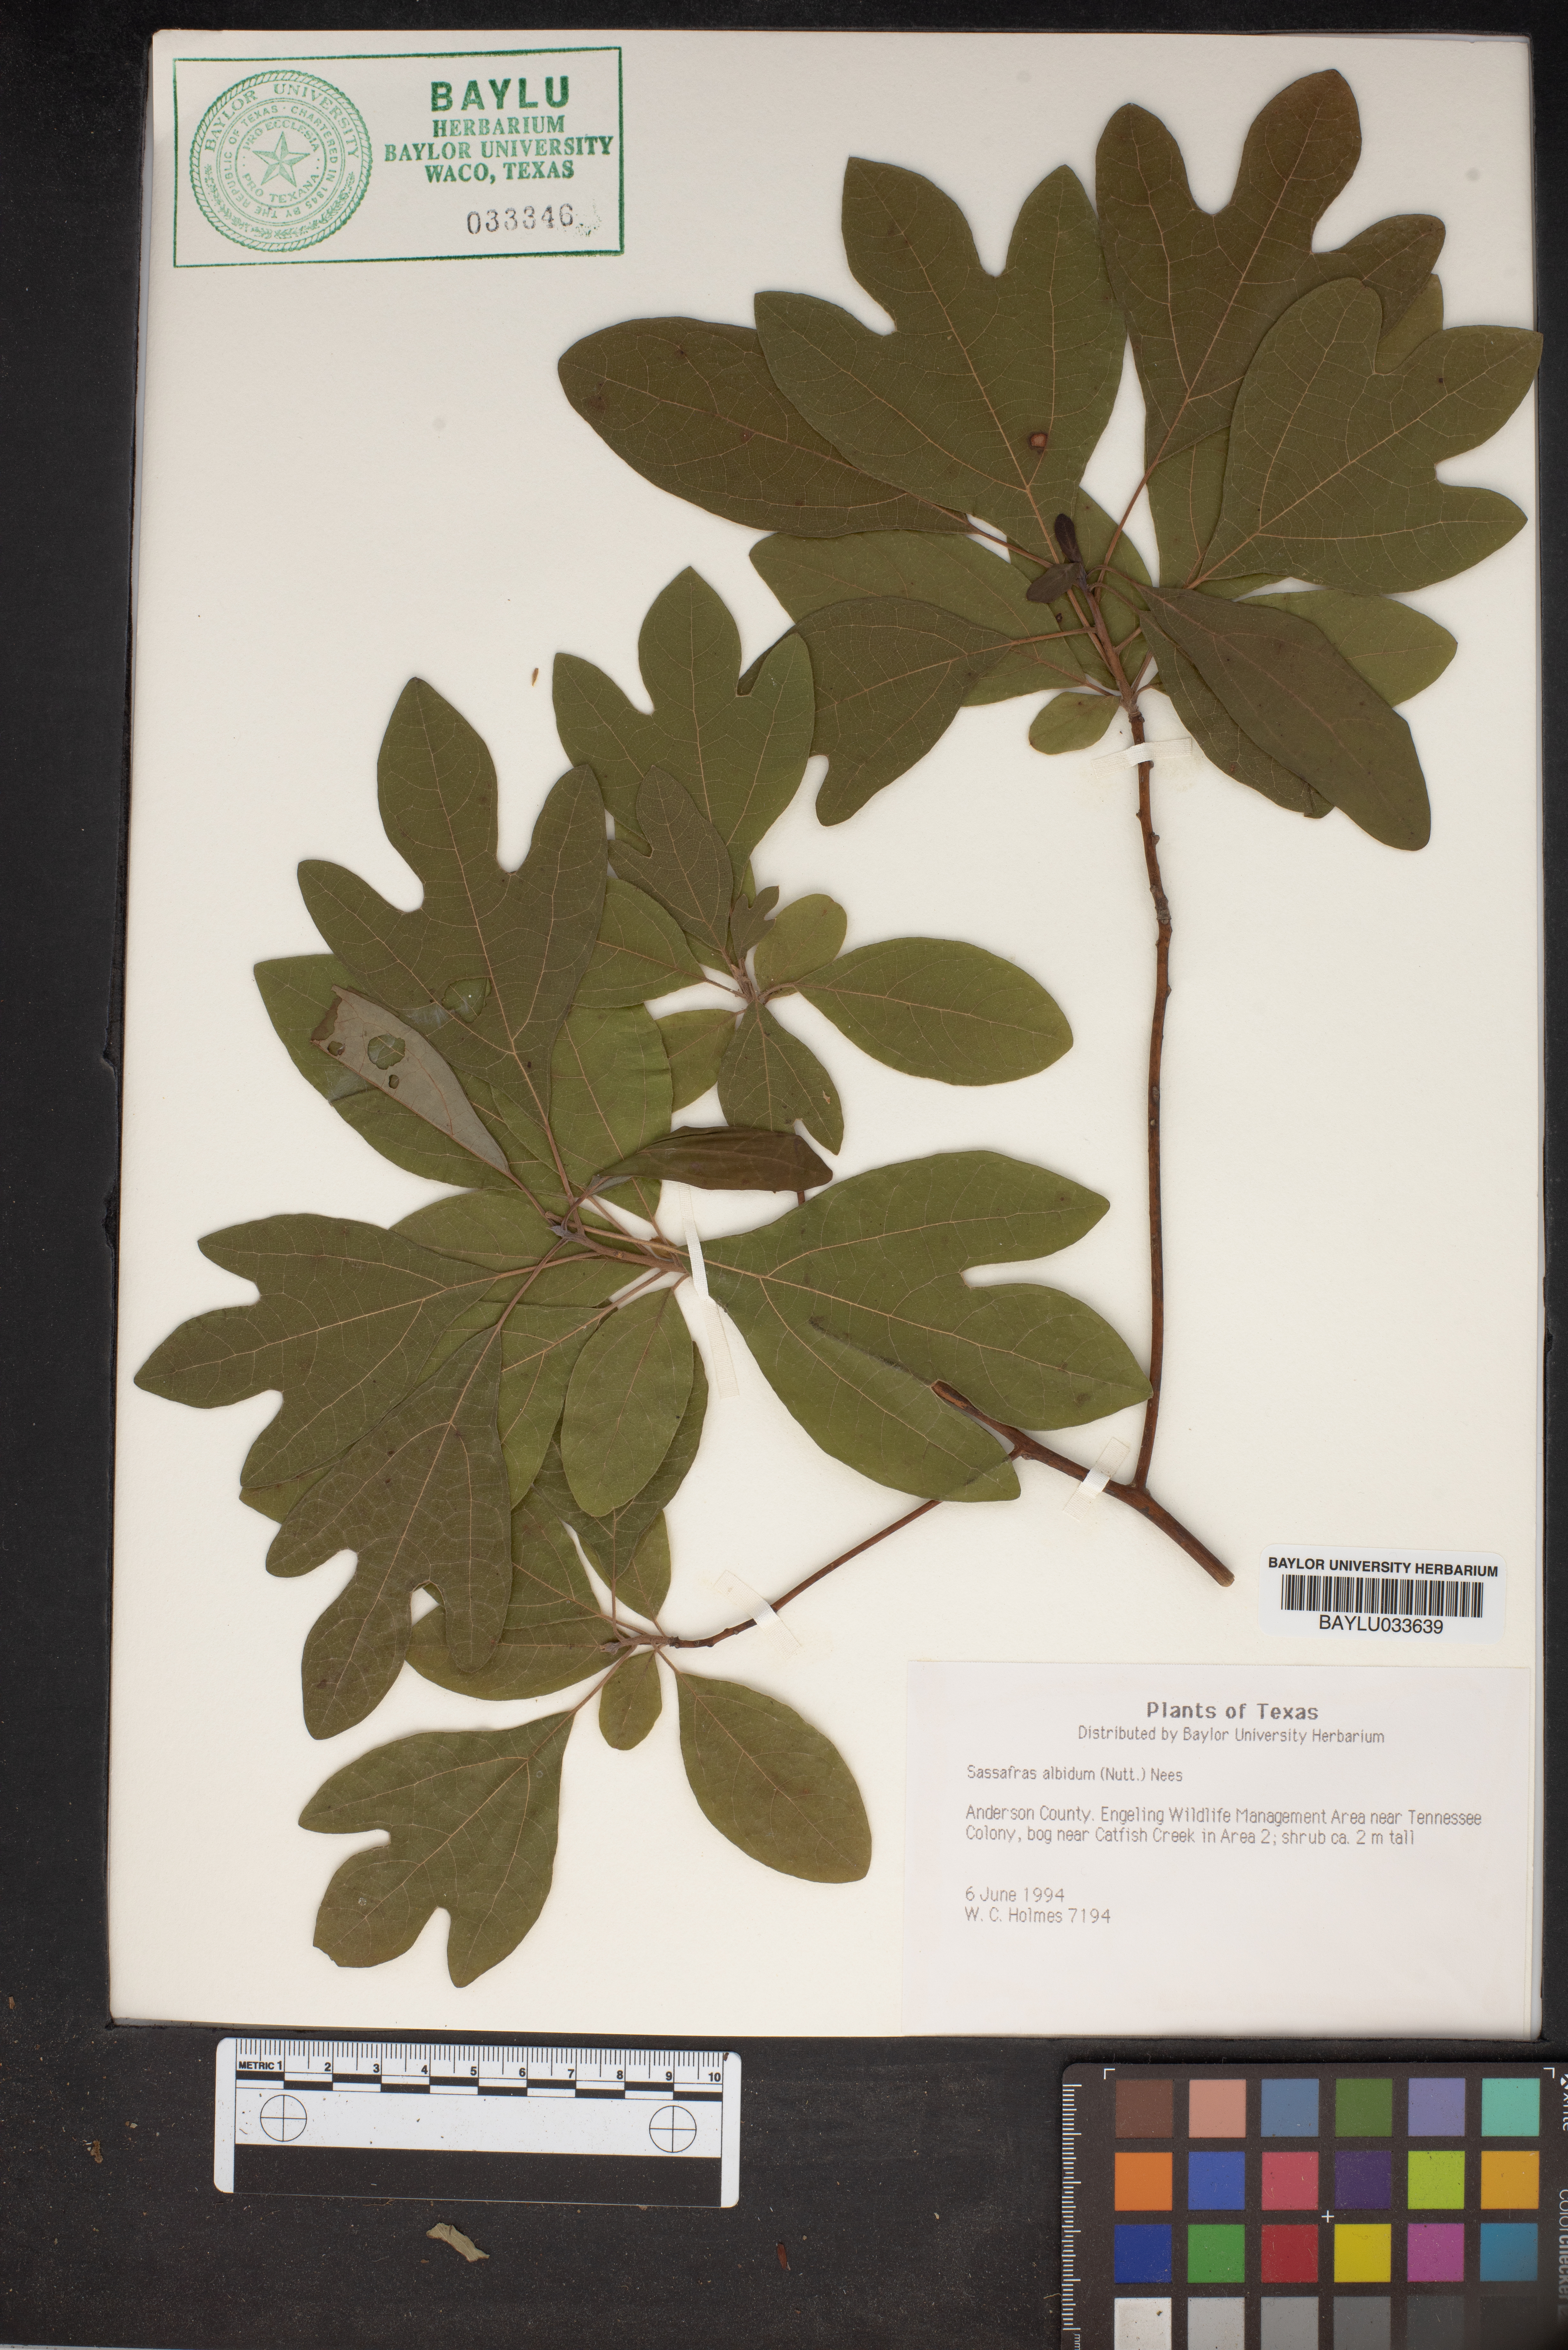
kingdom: Plantae
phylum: Tracheophyta
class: Magnoliopsida
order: Laurales
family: Lauraceae
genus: Sassafras
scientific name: Sassafras albidum
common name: Sassafras
